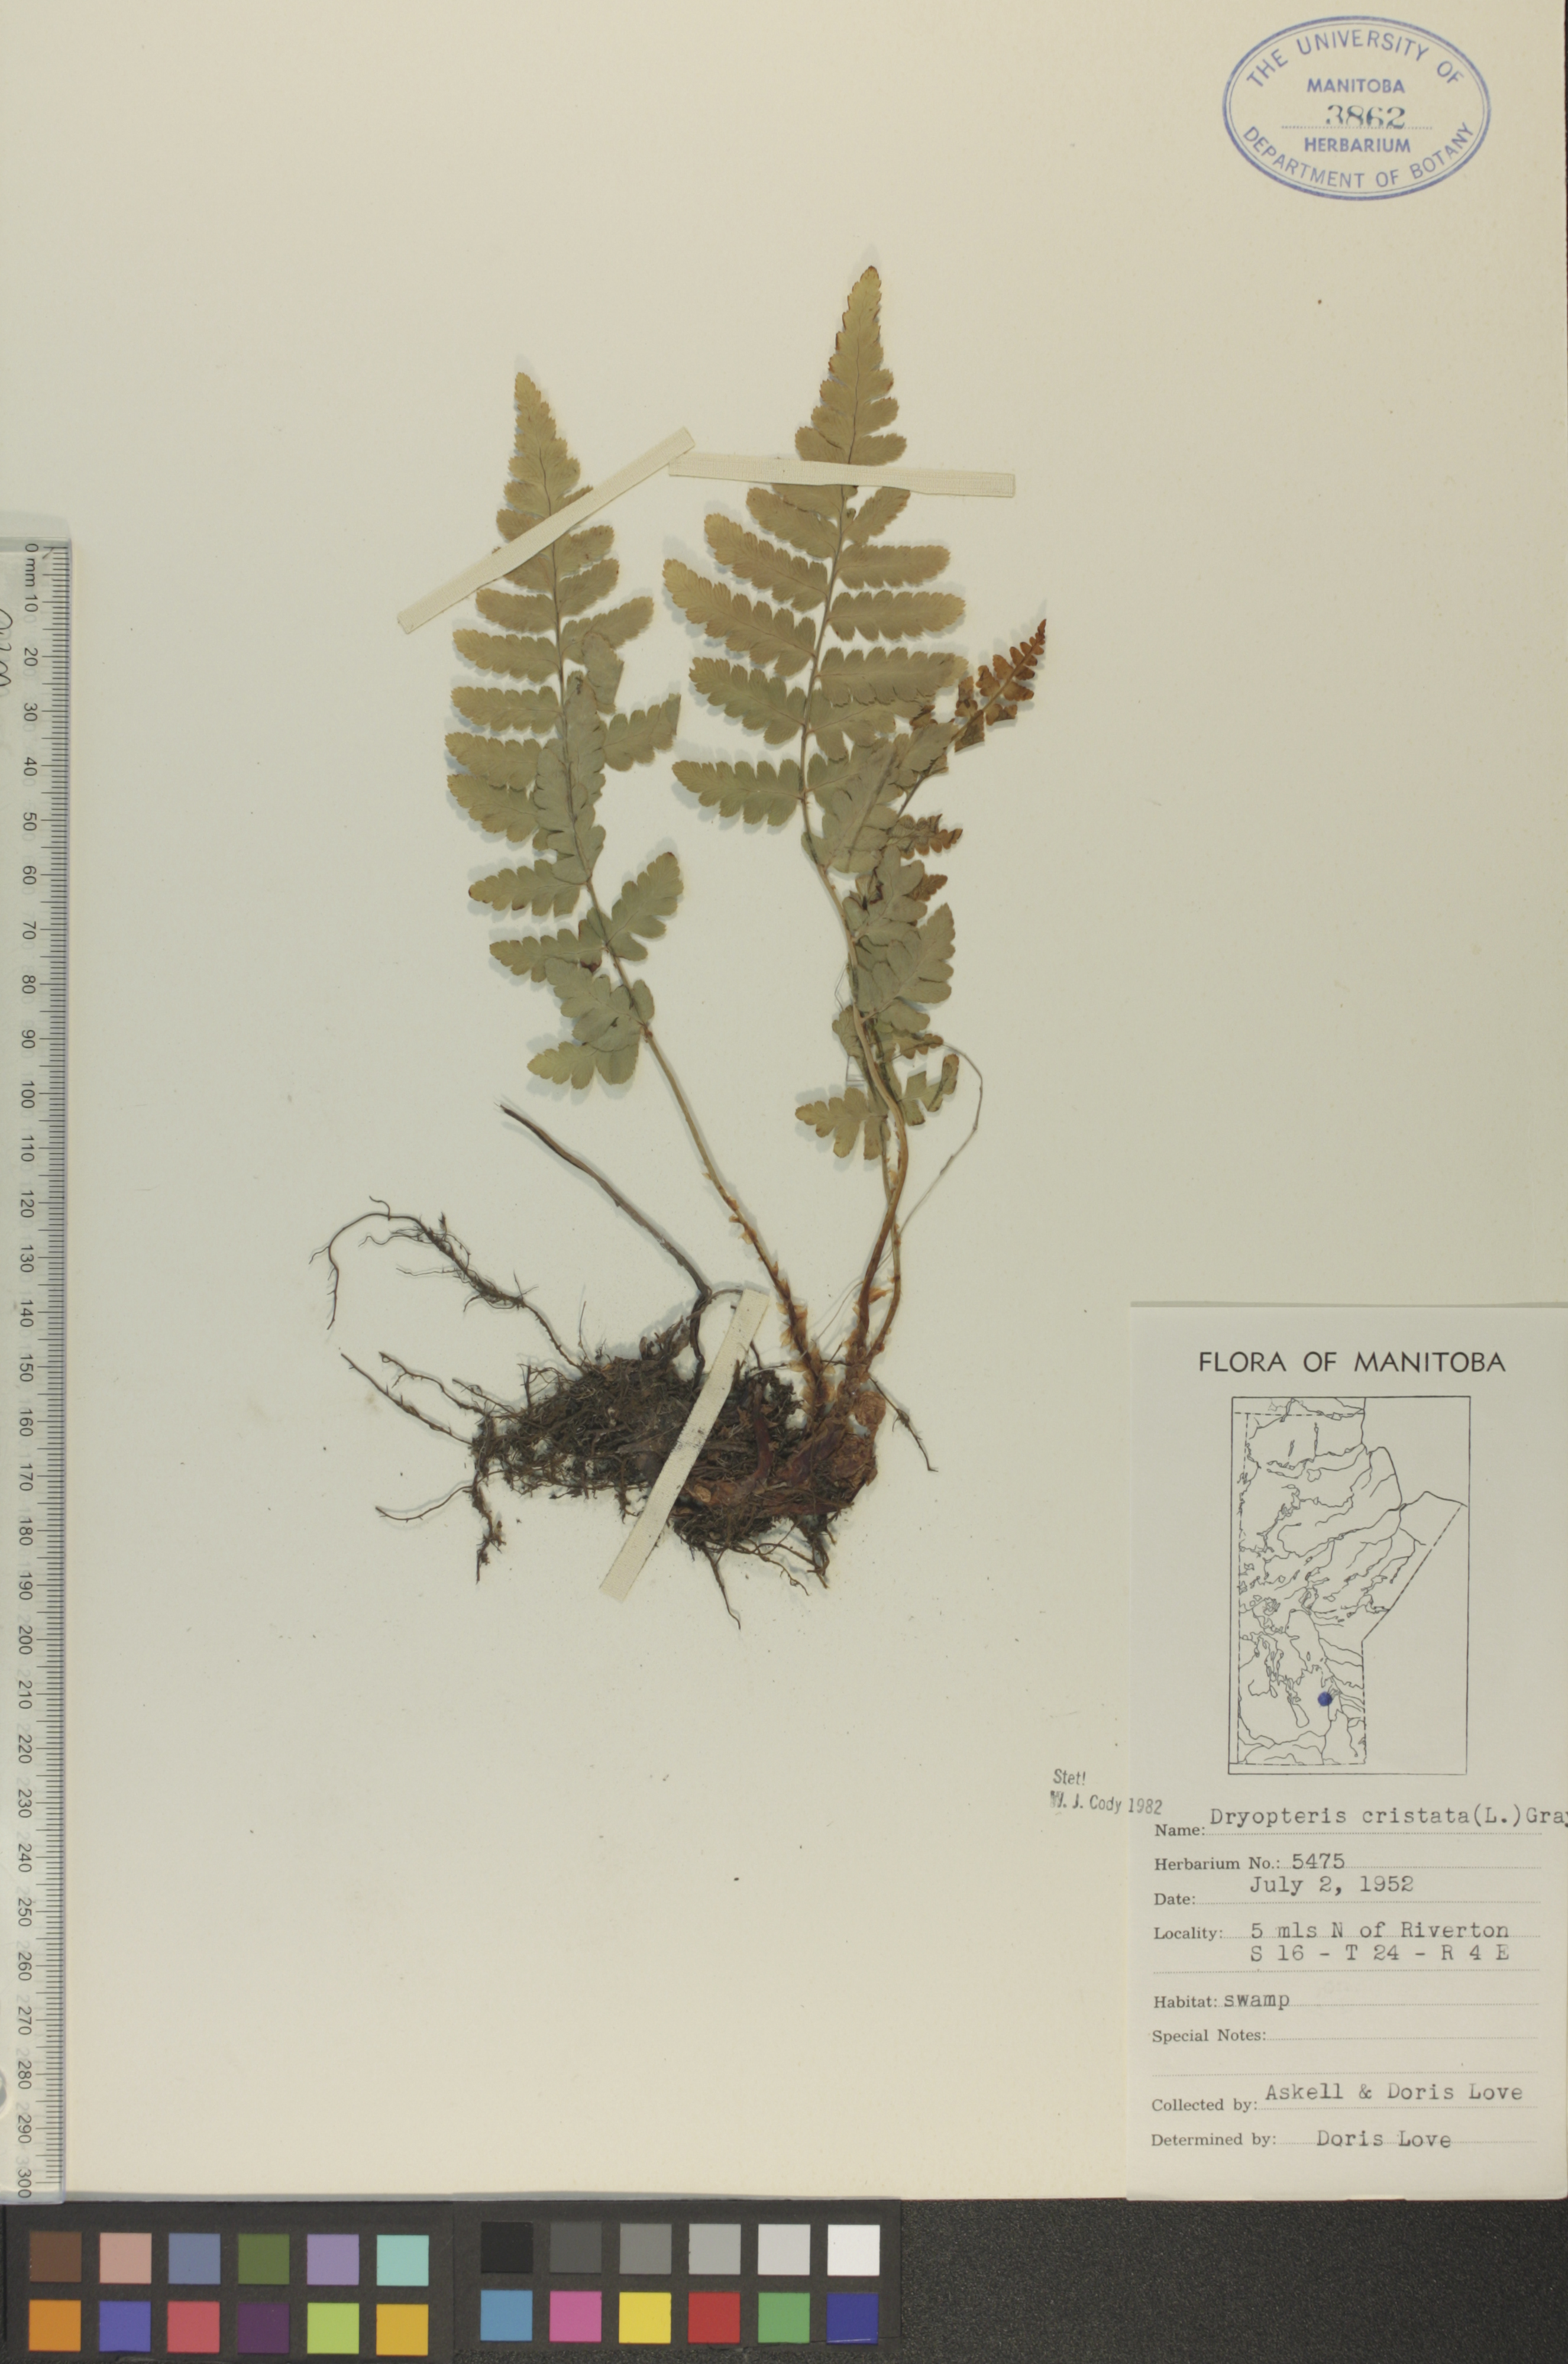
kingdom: Plantae
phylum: Tracheophyta
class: Polypodiopsida
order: Polypodiales
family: Dryopteridaceae
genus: Dryopteris
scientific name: Dryopteris cristata
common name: Crested wood fern
